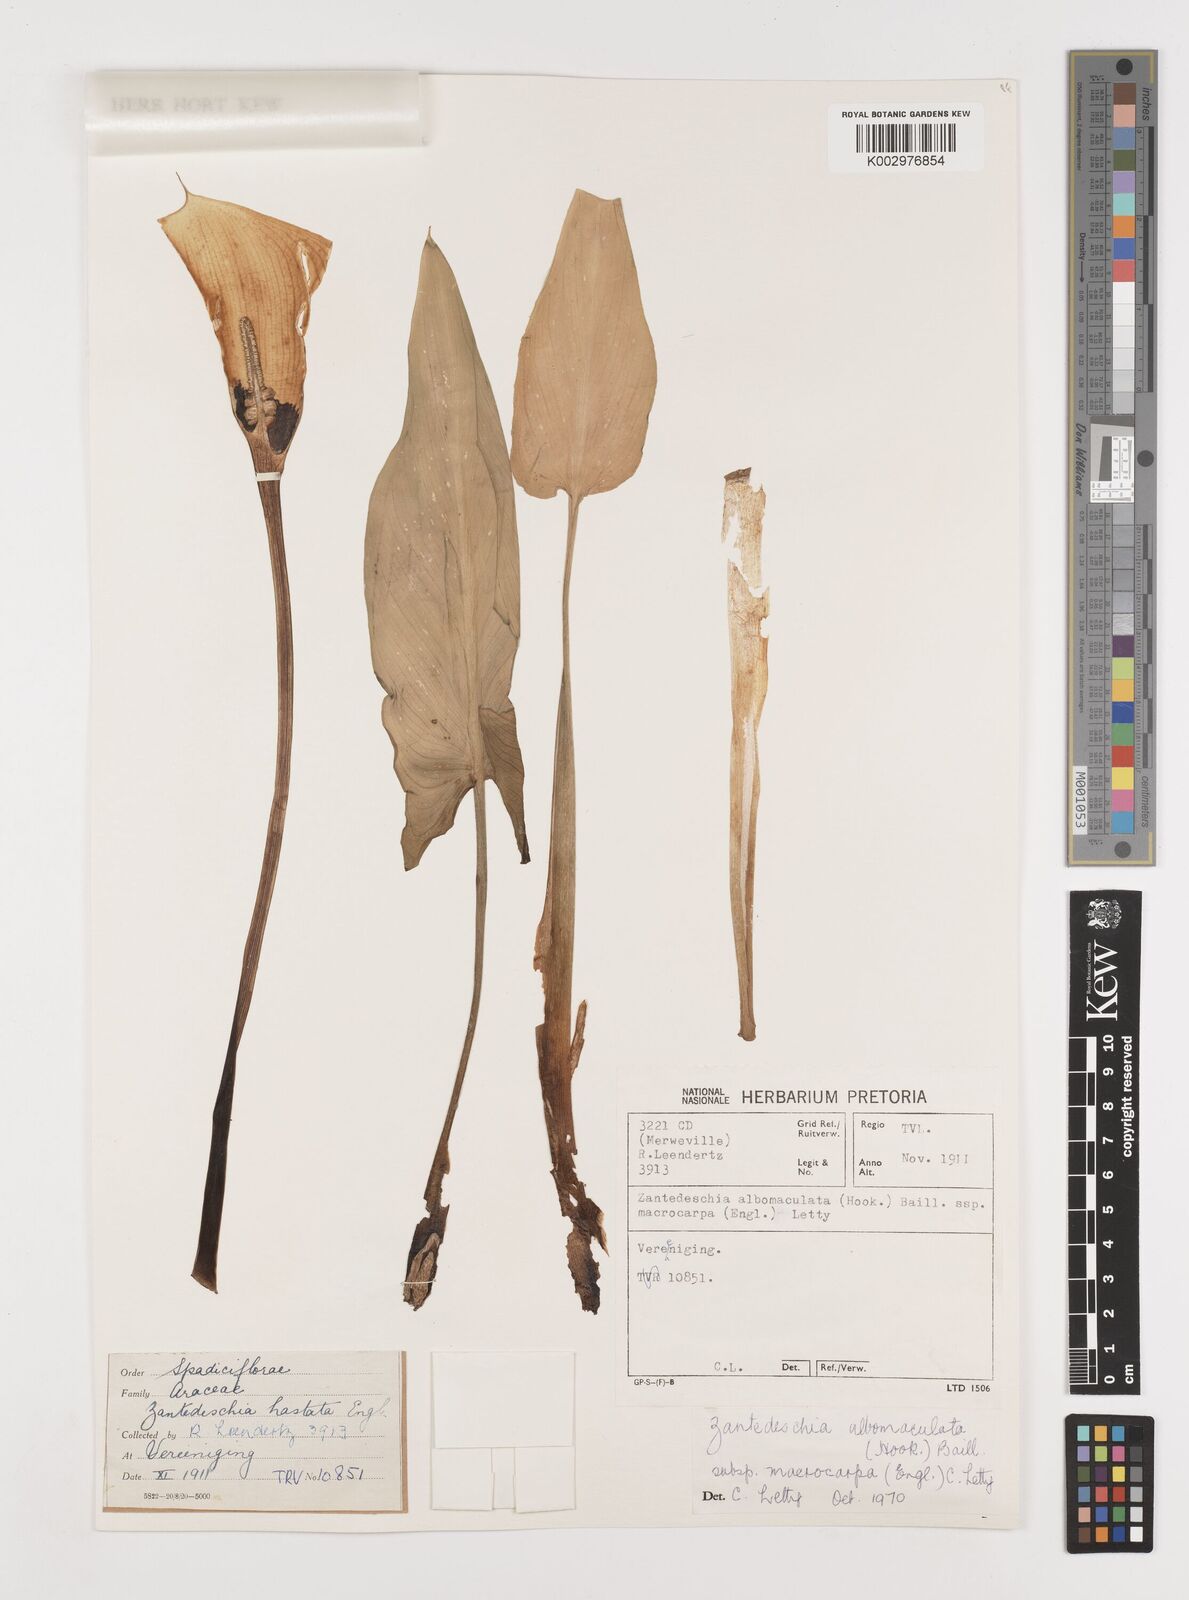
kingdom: Plantae
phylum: Tracheophyta
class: Liliopsida
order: Alismatales
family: Araceae
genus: Zantedeschia
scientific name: Zantedeschia albomaculata
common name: Spotted calla lily
